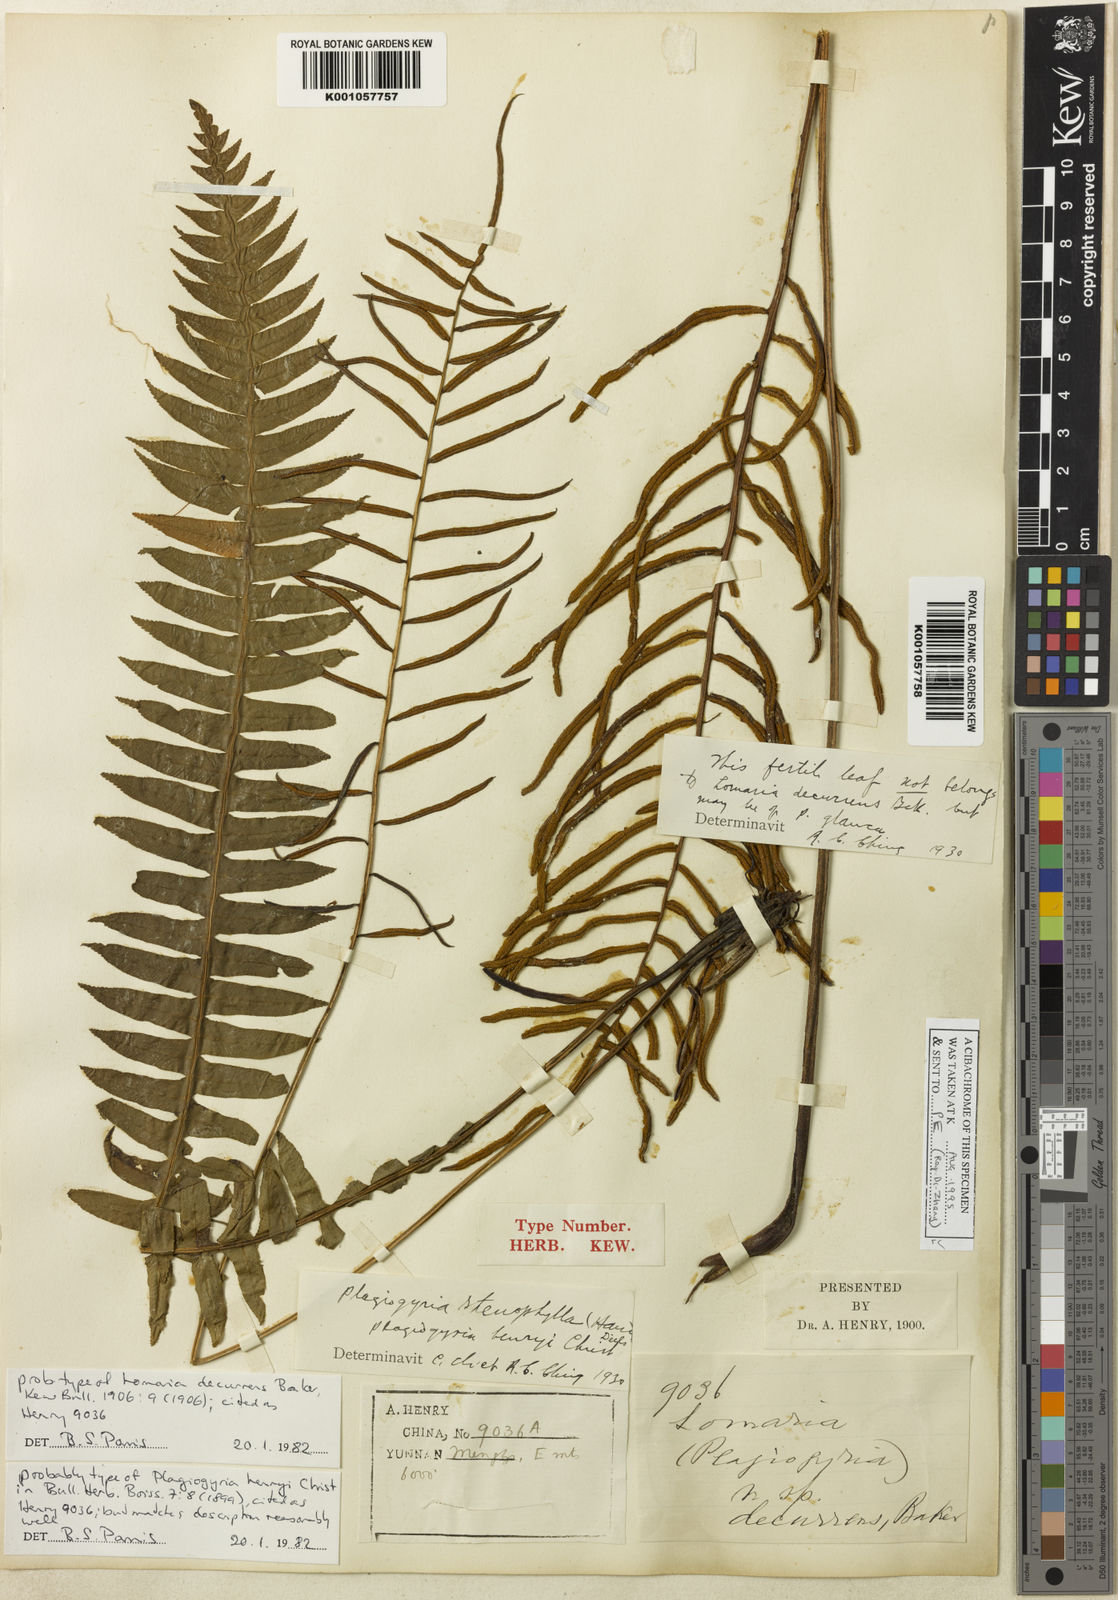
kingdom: Plantae
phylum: Tracheophyta
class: Polypodiopsida
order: Cyatheales
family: Plagiogyriaceae
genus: Plagiogyria
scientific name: Plagiogyria stenoptera
